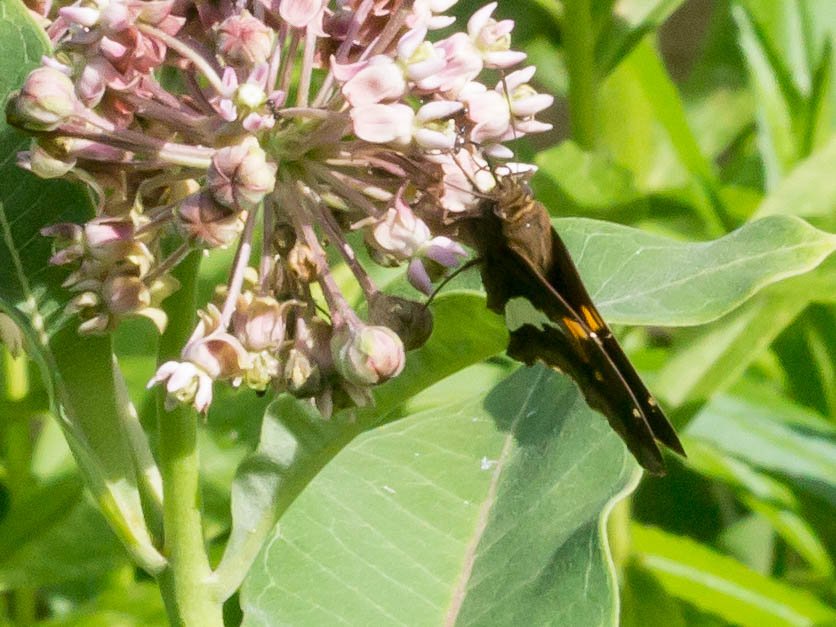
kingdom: Animalia
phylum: Arthropoda
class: Insecta
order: Lepidoptera
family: Hesperiidae
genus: Epargyreus
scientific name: Epargyreus clarus
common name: Silver-spotted Skipper
